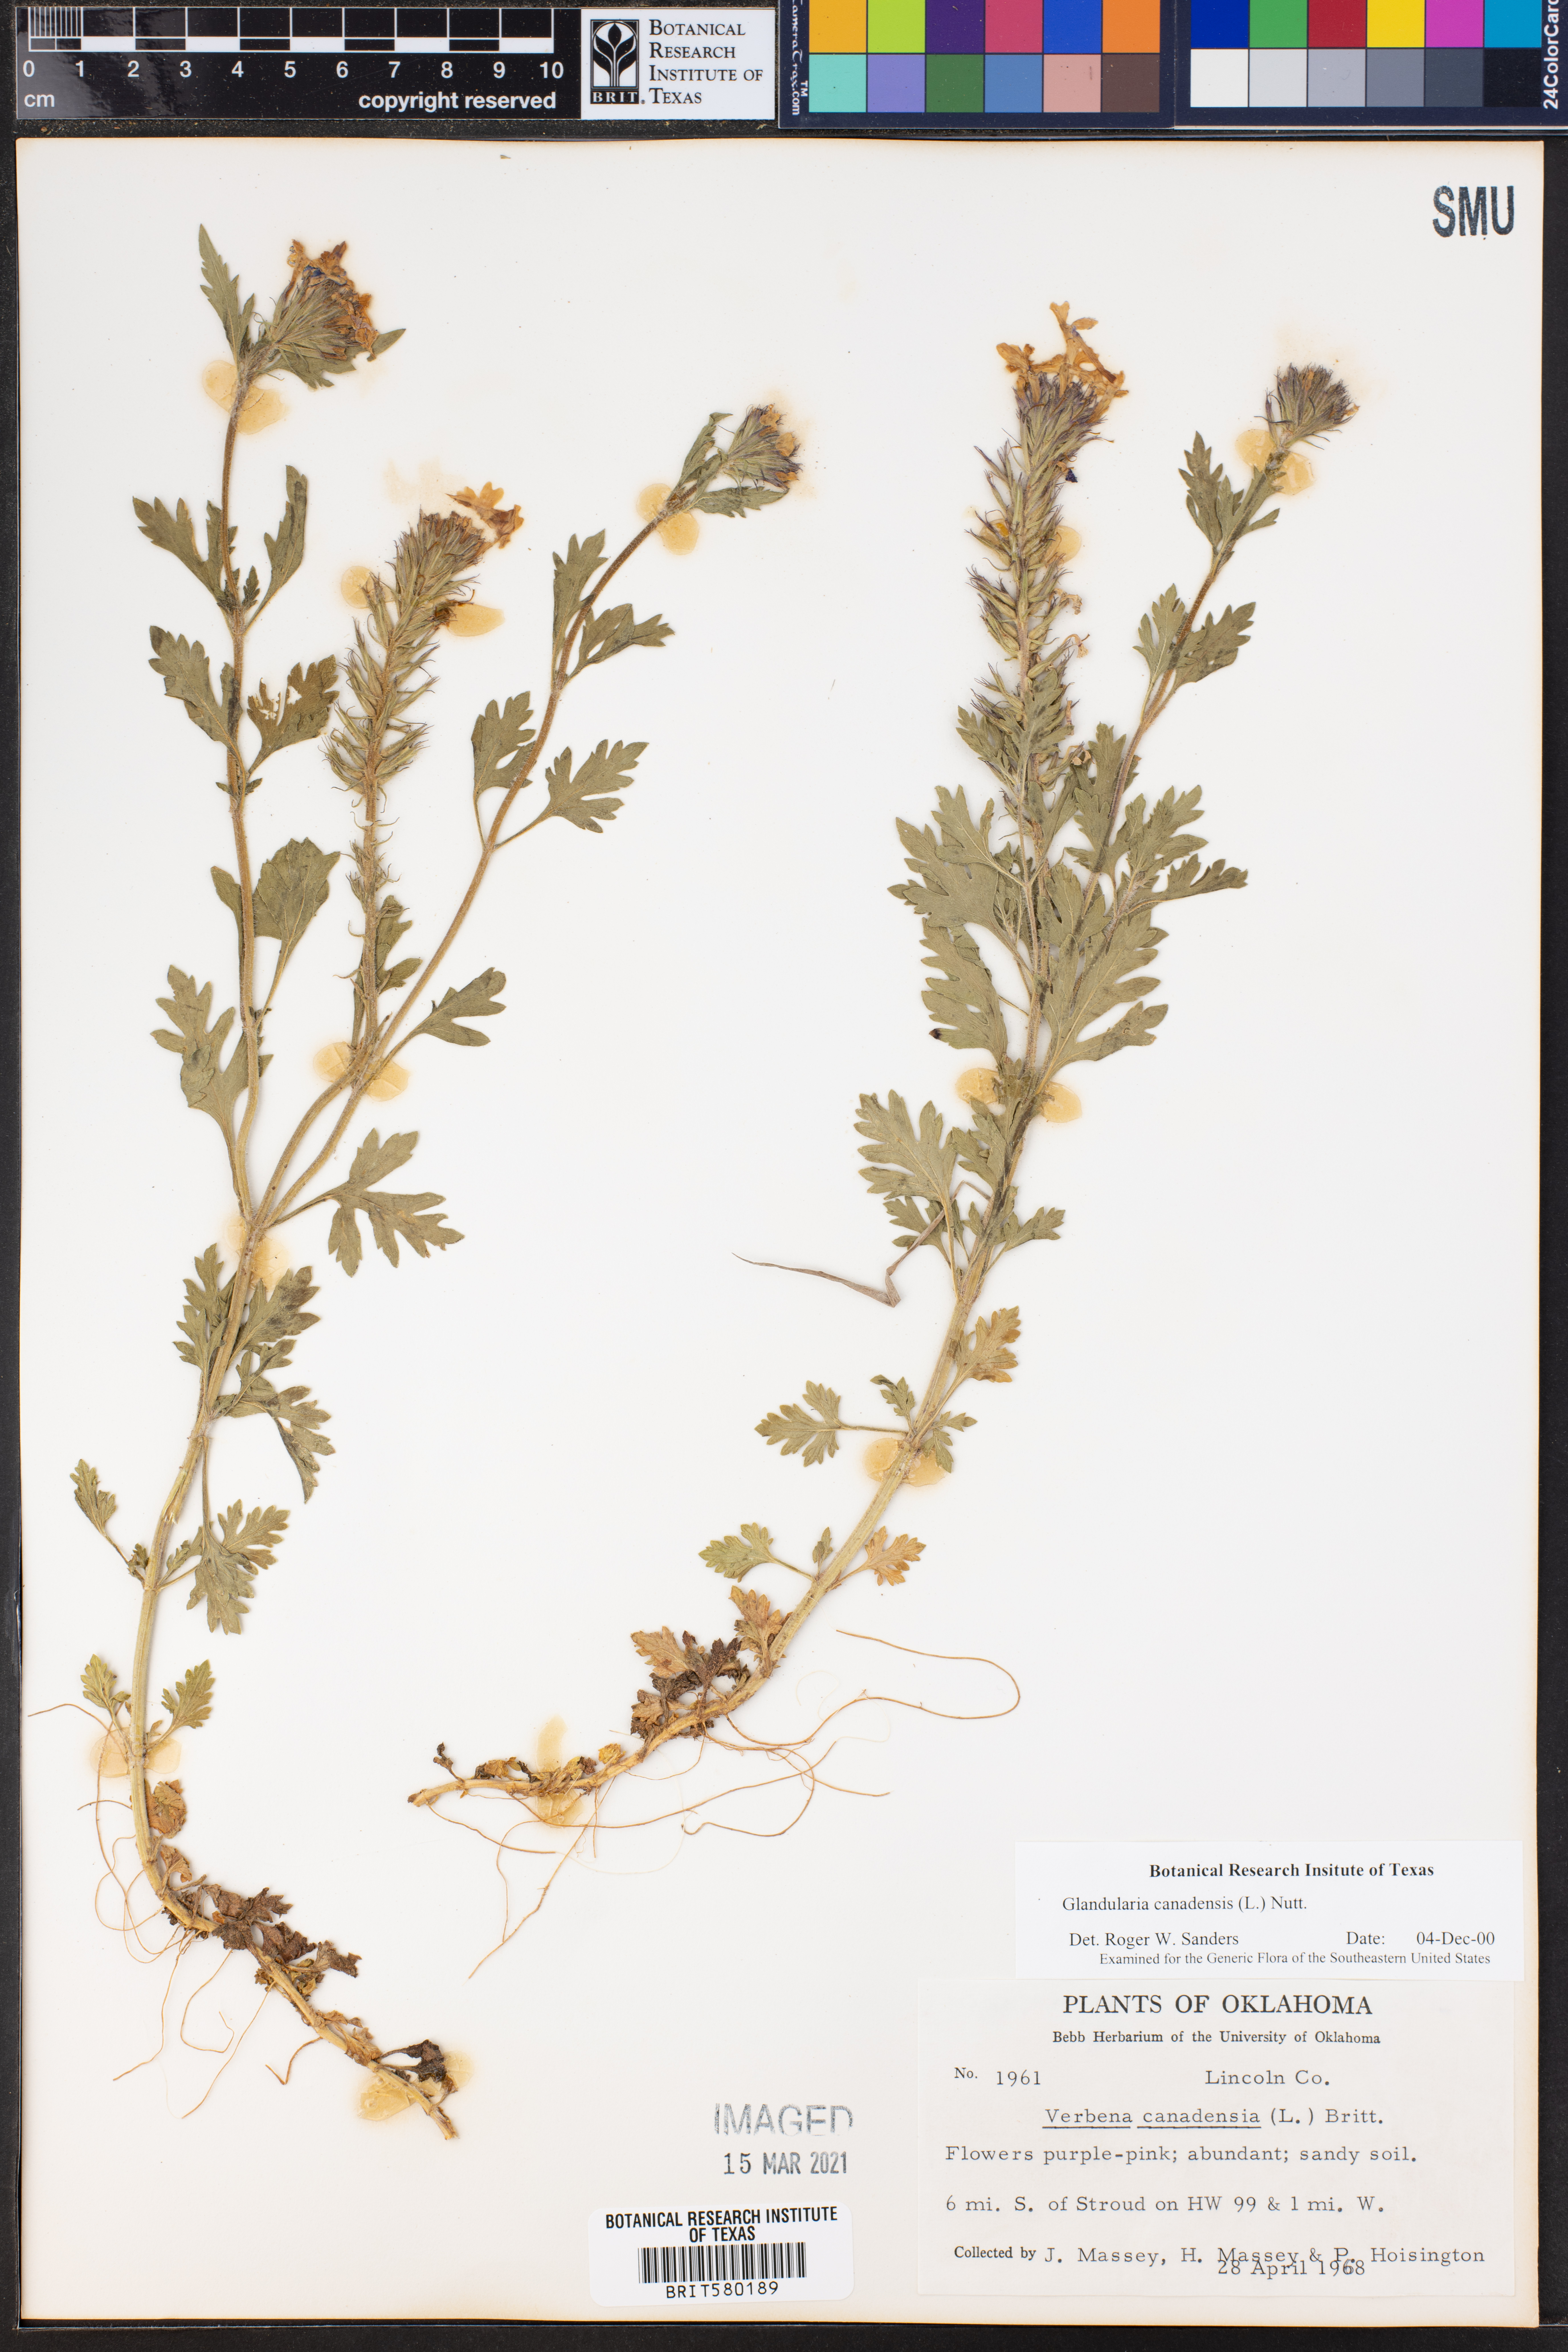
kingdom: Plantae
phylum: Tracheophyta
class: Magnoliopsida
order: Lamiales
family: Verbenaceae
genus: Verbena
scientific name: Verbena canadensis
